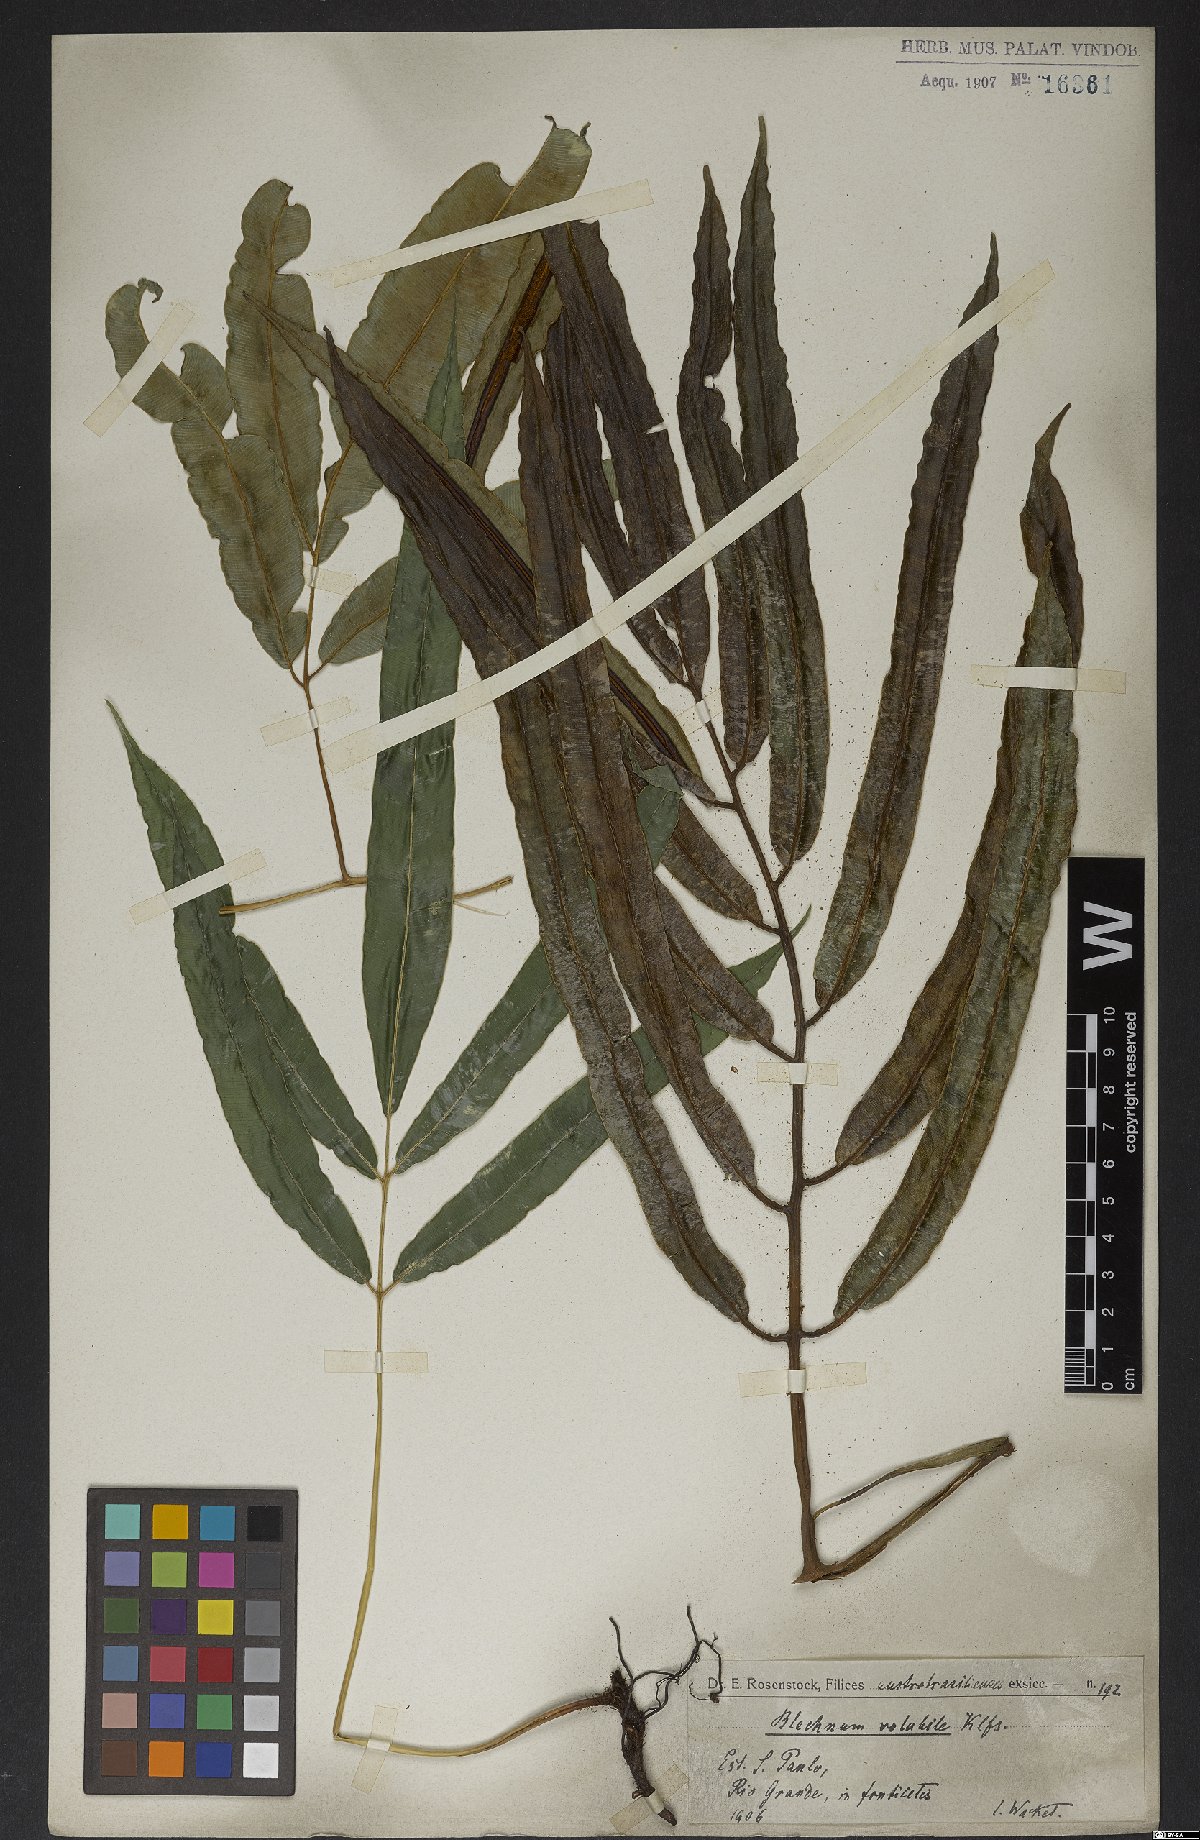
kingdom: Plantae
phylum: Tracheophyta
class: Polypodiopsida
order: Polypodiales
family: Blechnaceae
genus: Salpichlaena
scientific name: Salpichlaena volubilis
